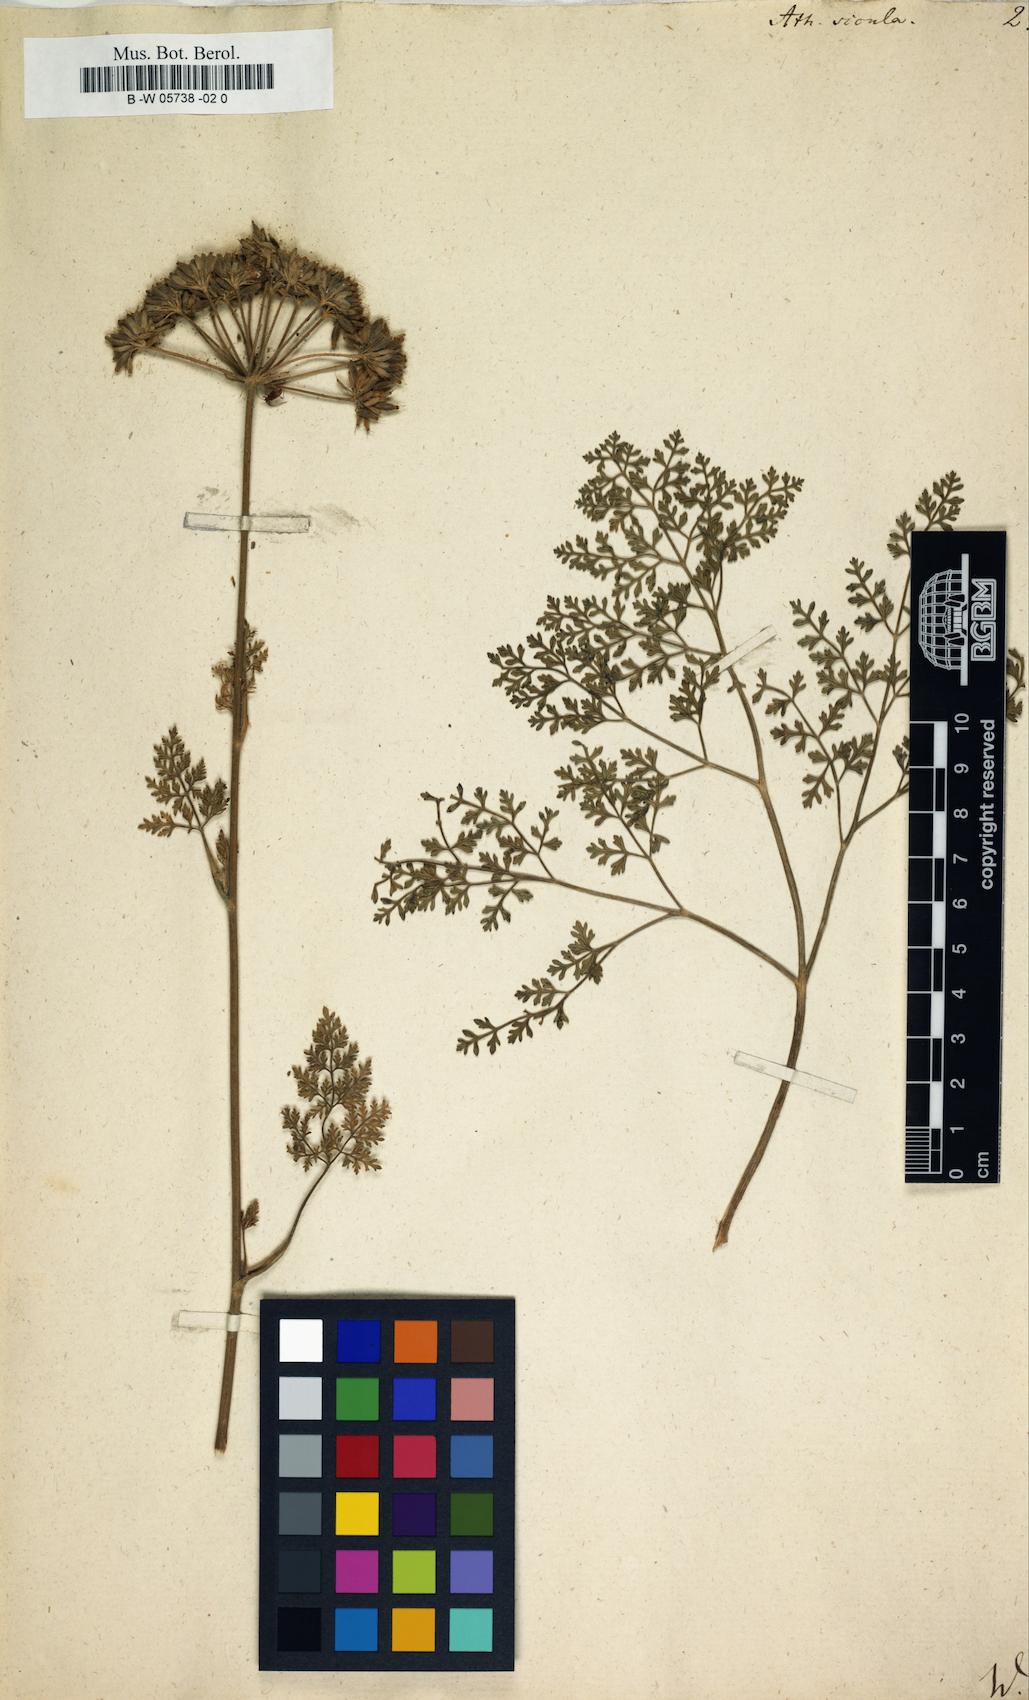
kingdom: Plantae
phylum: Tracheophyta
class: Magnoliopsida
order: Apiales
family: Apiaceae
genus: Athamanta
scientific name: Athamanta sicula
